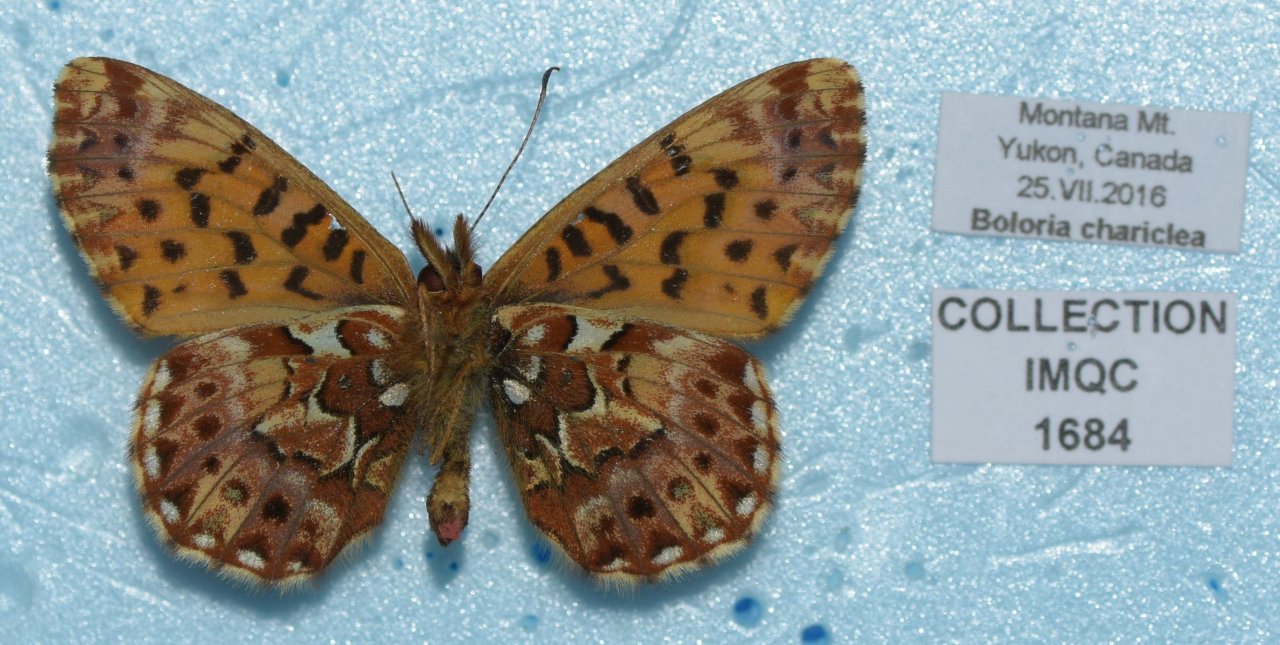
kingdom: Animalia
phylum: Arthropoda
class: Insecta
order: Lepidoptera
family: Nymphalidae
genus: Boloria
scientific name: Boloria chariclea
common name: Arctic Fritillary
